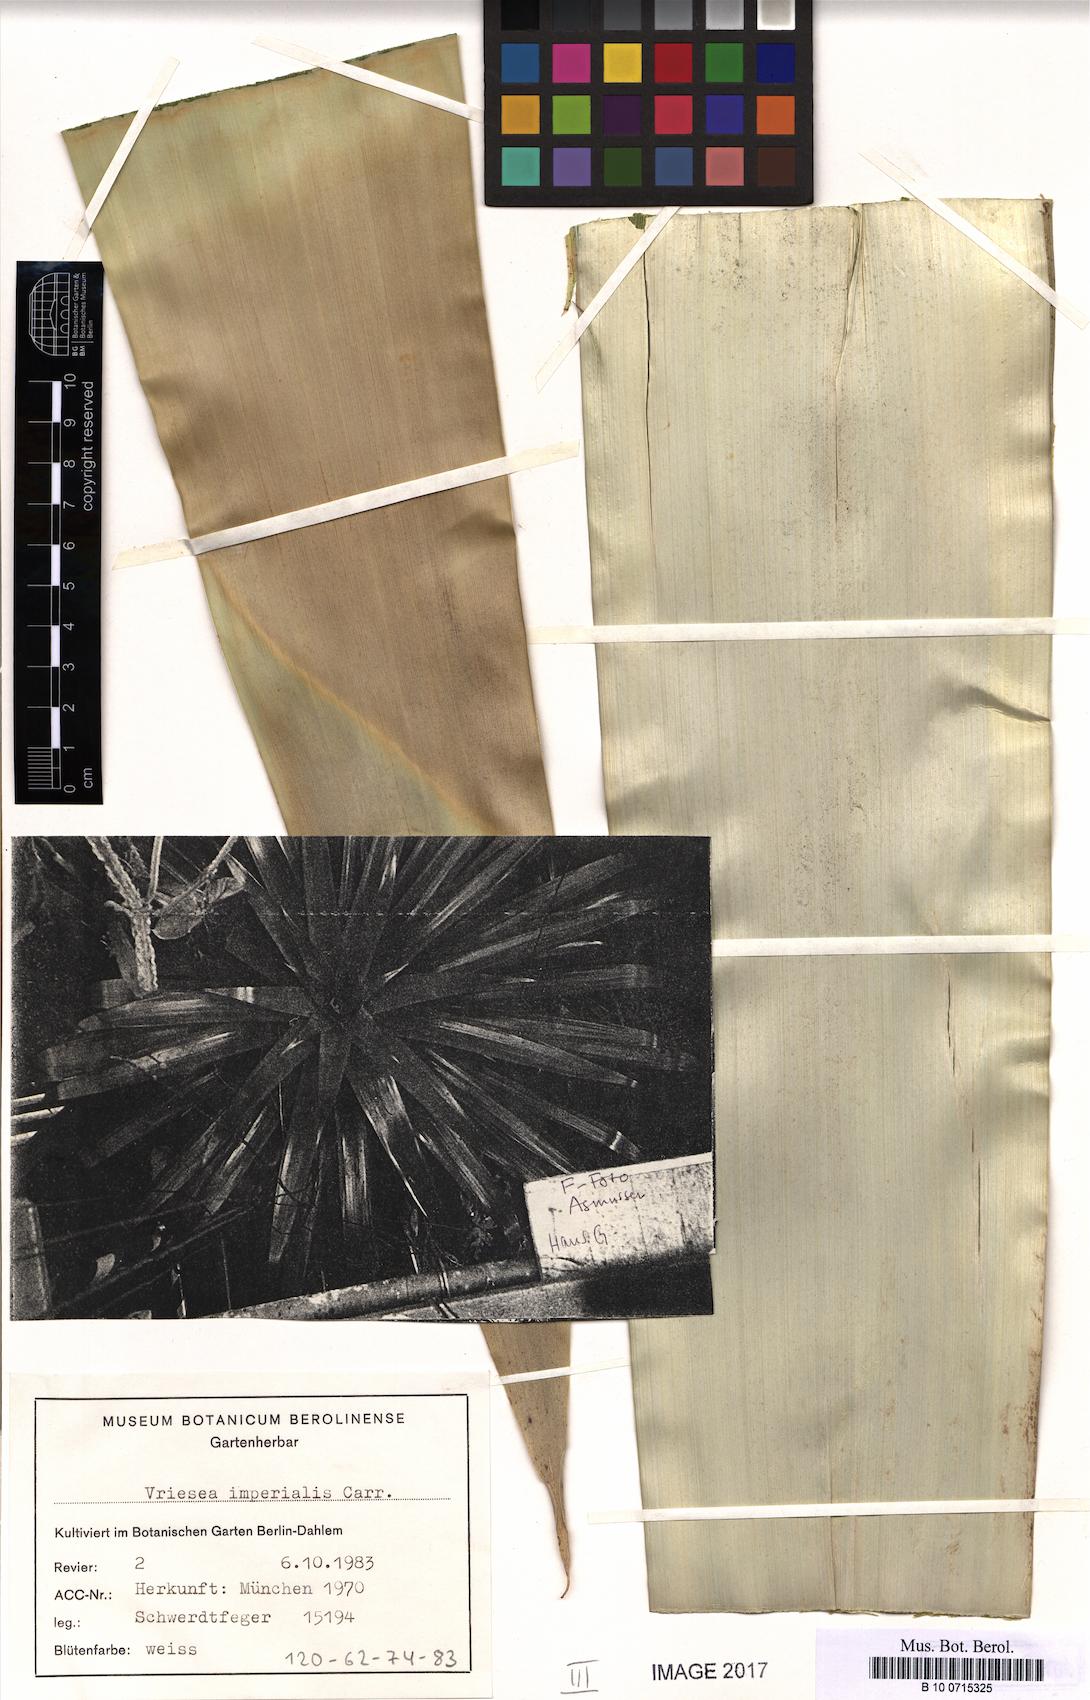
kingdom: Plantae
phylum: Tracheophyta
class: Liliopsida
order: Poales
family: Bromeliaceae
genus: Alcantarea
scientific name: Alcantarea imperialis
